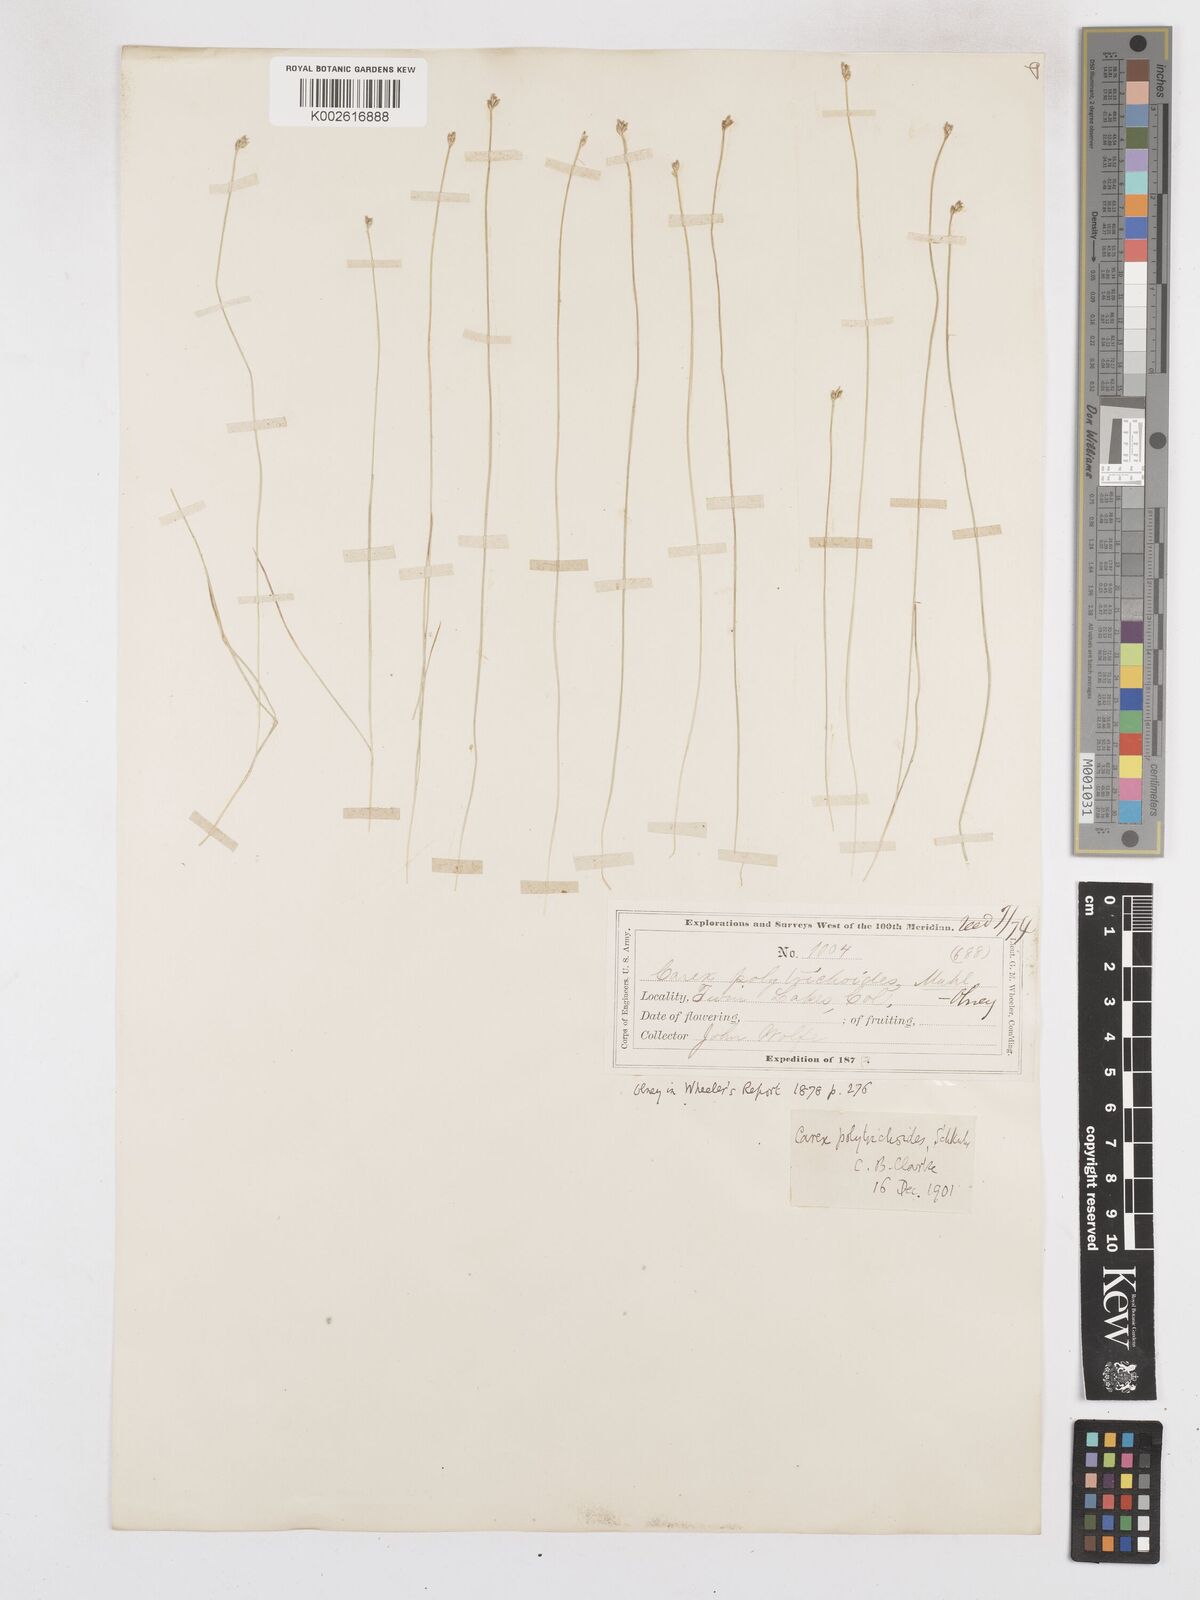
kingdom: Plantae
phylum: Tracheophyta
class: Liliopsida
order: Poales
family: Cyperaceae
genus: Carex
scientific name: Carex leptalea
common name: Bristly-stalked sedge
